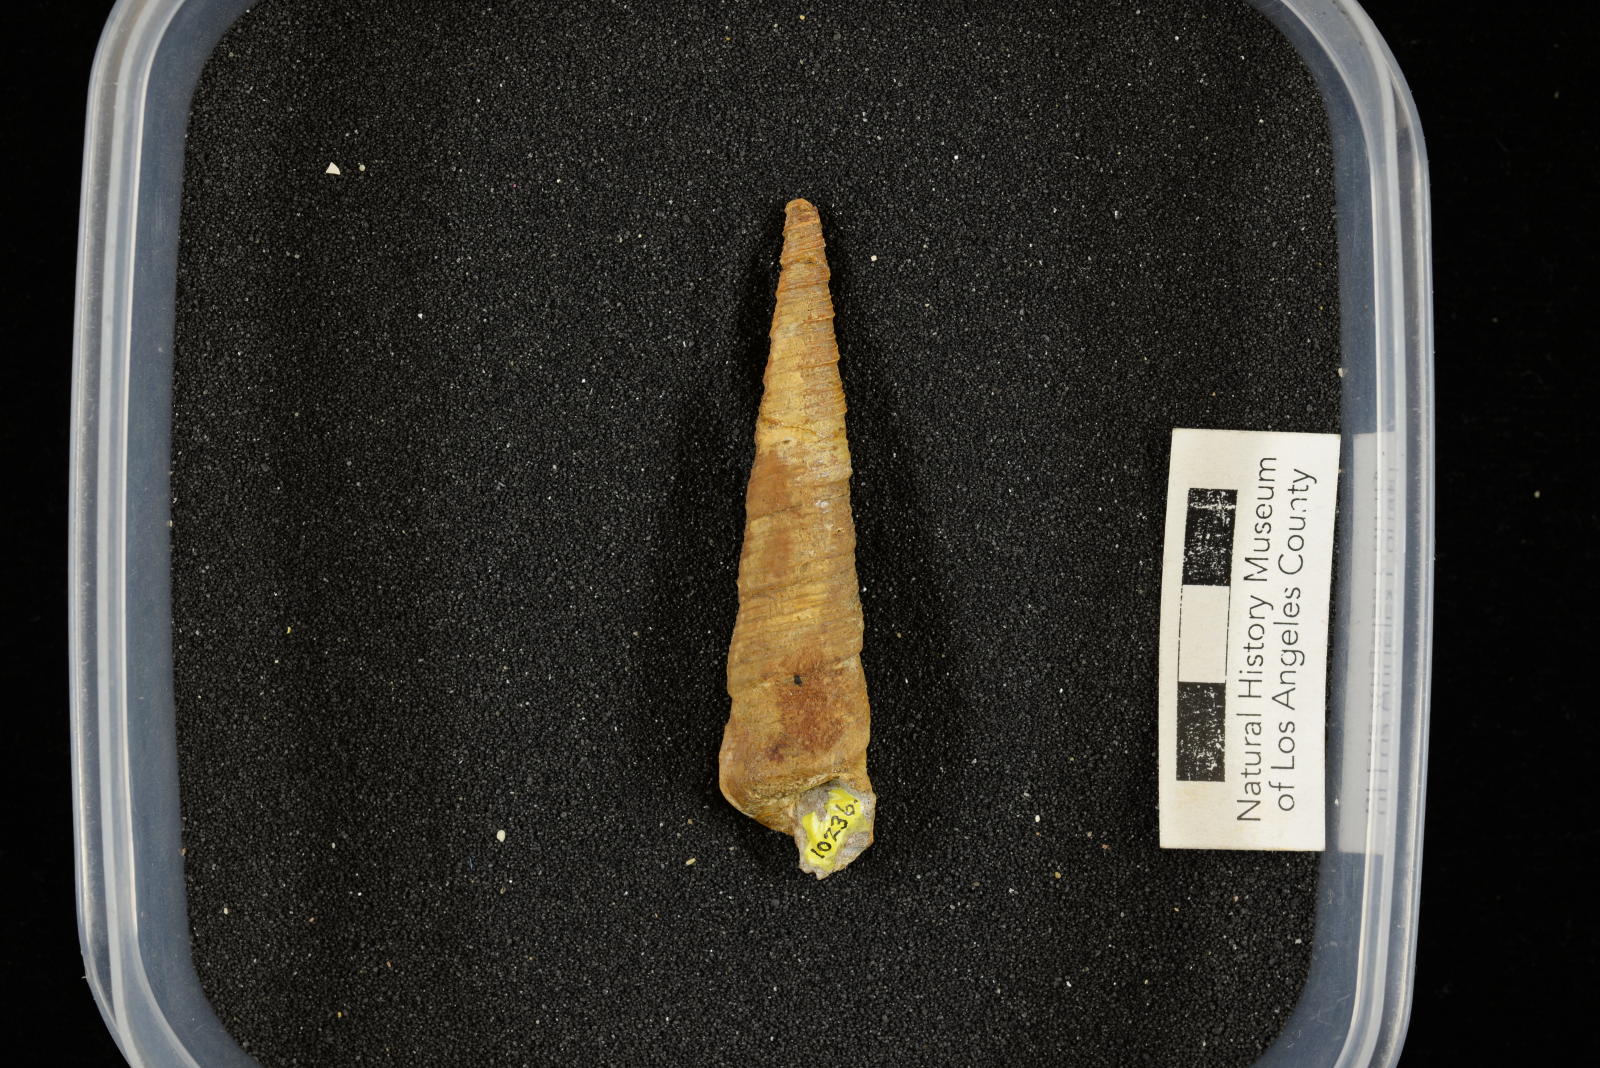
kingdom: Animalia
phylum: Mollusca
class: Gastropoda
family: Turritellidae
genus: Turritella
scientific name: Turritella
